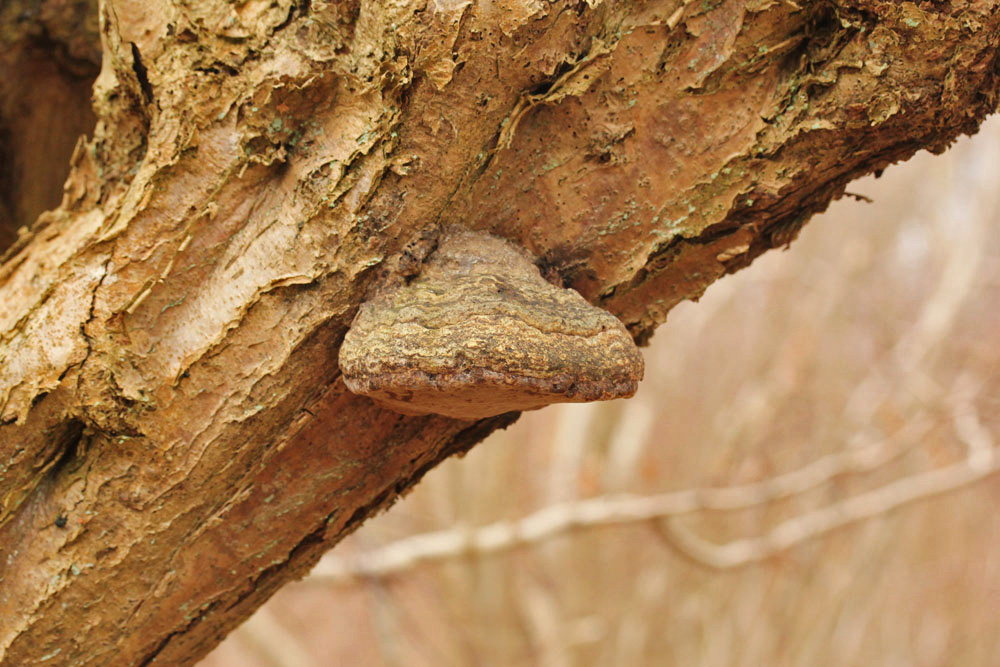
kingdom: Fungi
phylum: Basidiomycota
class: Agaricomycetes
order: Polyporales
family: Polyporaceae
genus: Fomes
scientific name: Fomes fomentarius
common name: tøndersvamp
